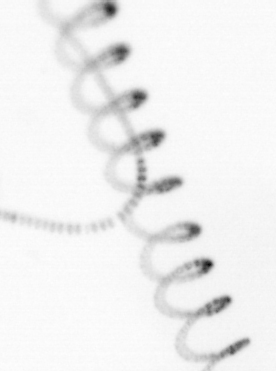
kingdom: Chromista
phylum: Ochrophyta
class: Bacillariophyceae
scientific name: Bacillariophyceae
